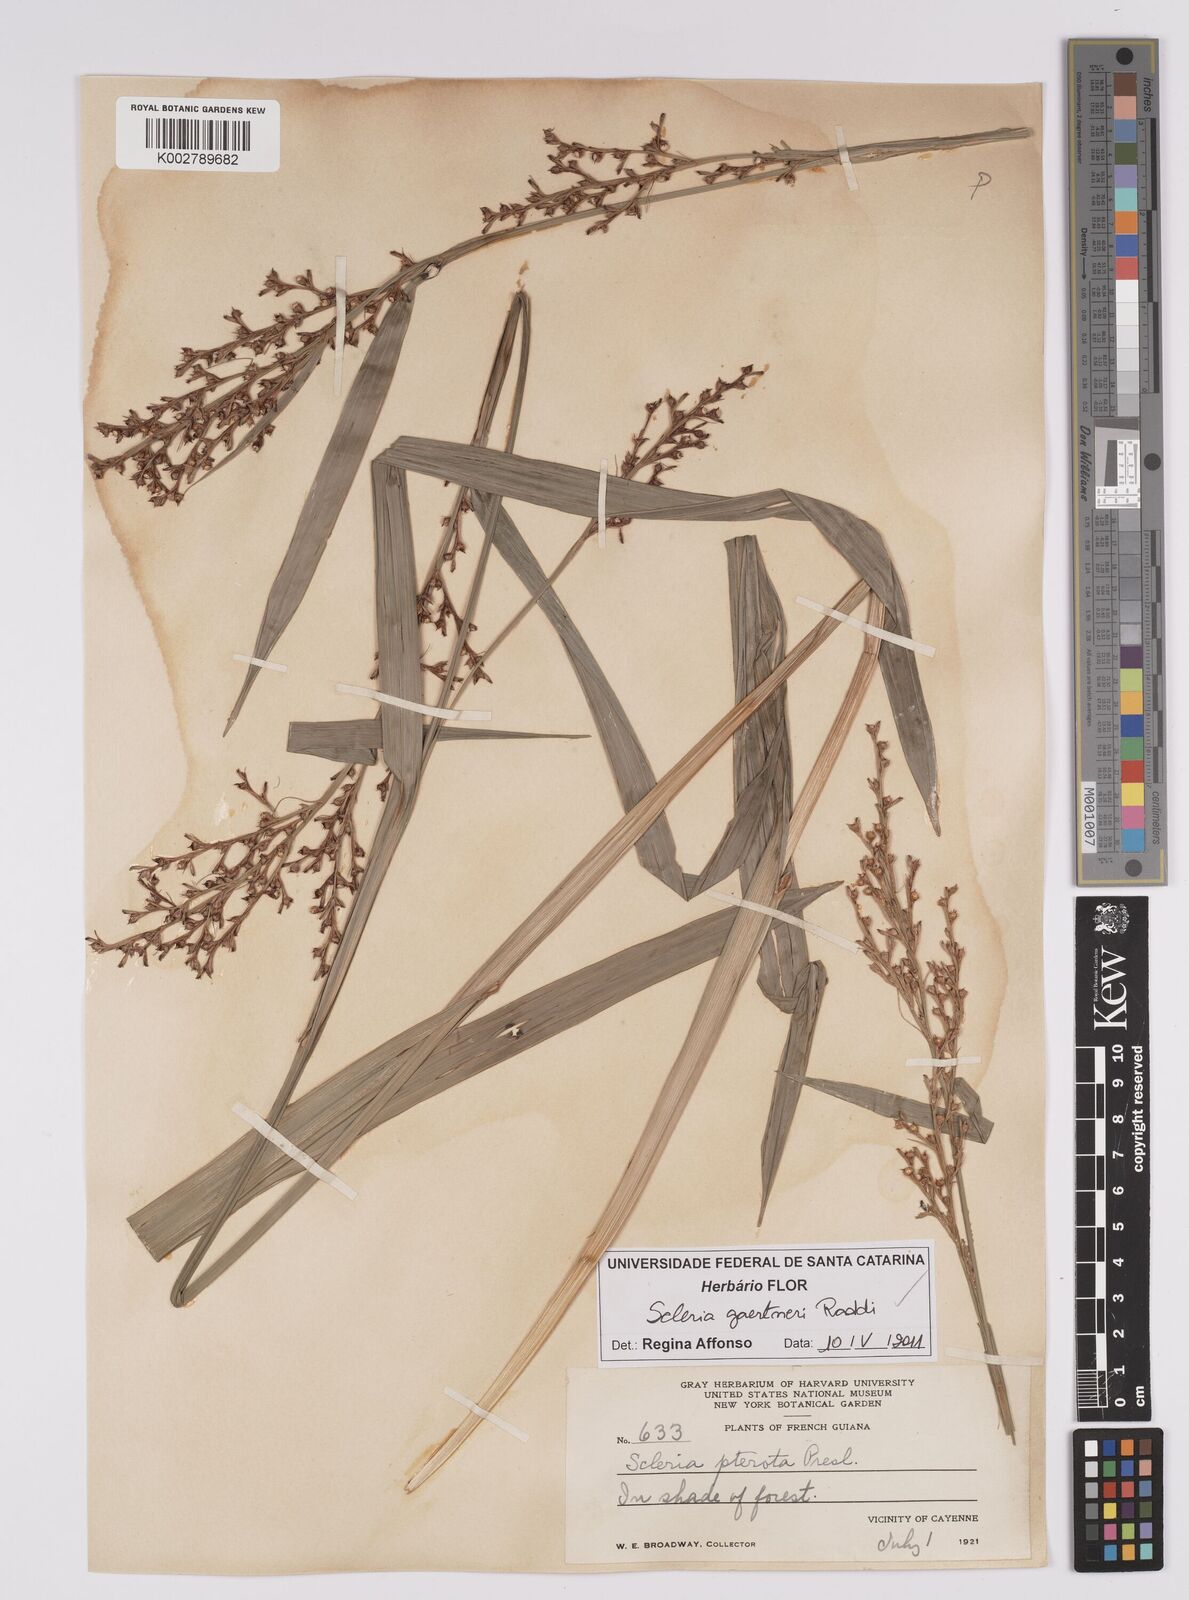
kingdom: Plantae
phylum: Tracheophyta
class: Liliopsida
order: Poales
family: Cyperaceae
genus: Scleria
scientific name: Scleria gaertneri
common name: Cortadera blanca
